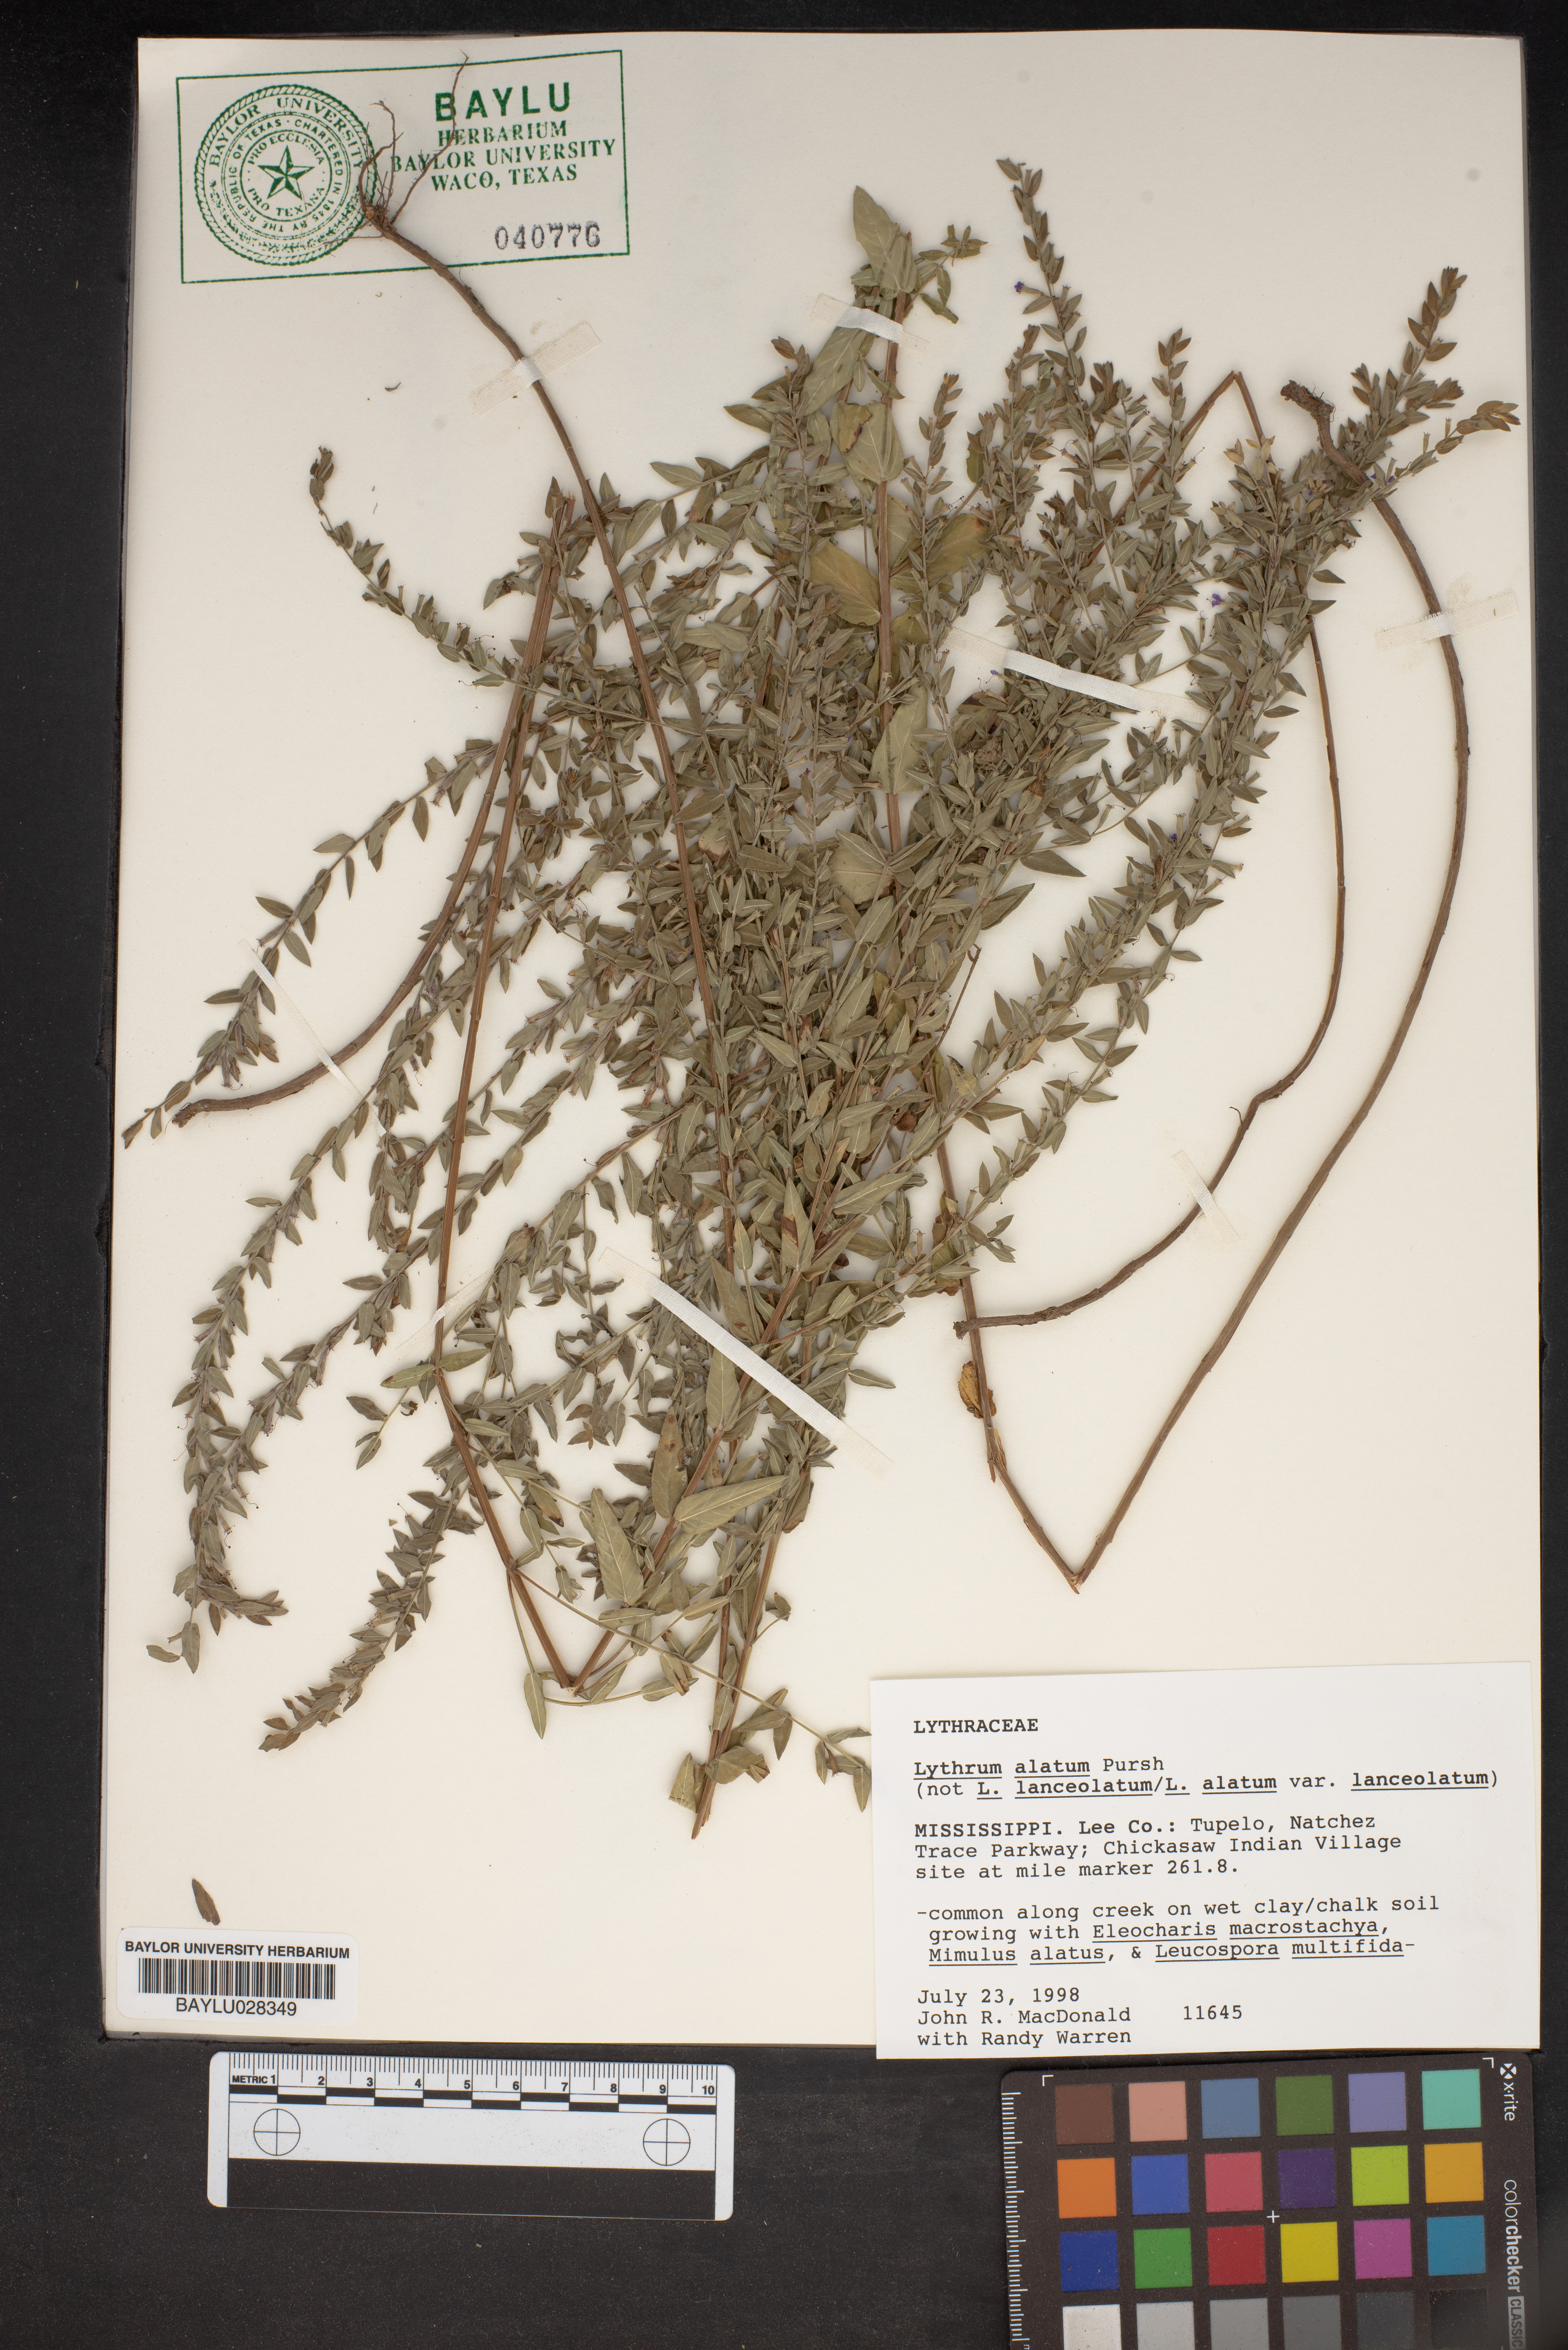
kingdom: Plantae
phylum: Tracheophyta
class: Magnoliopsida
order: Myrtales
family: Lythraceae
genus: Lythrum
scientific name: Lythrum alatum
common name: Winged loosestrife
